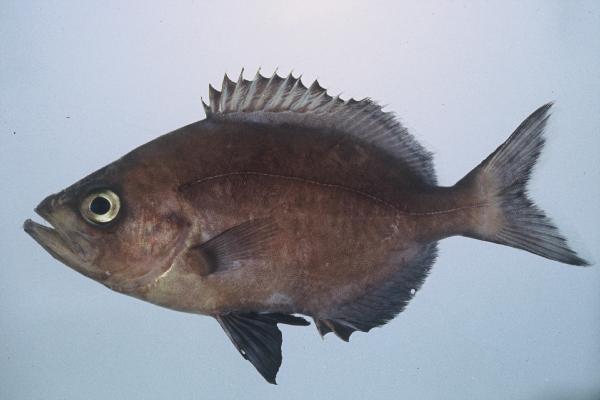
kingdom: Animalia
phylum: Chordata
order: Perciformes
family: Parascorpididae
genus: Parascorpis
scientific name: Parascorpis typus
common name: Jutjaw
